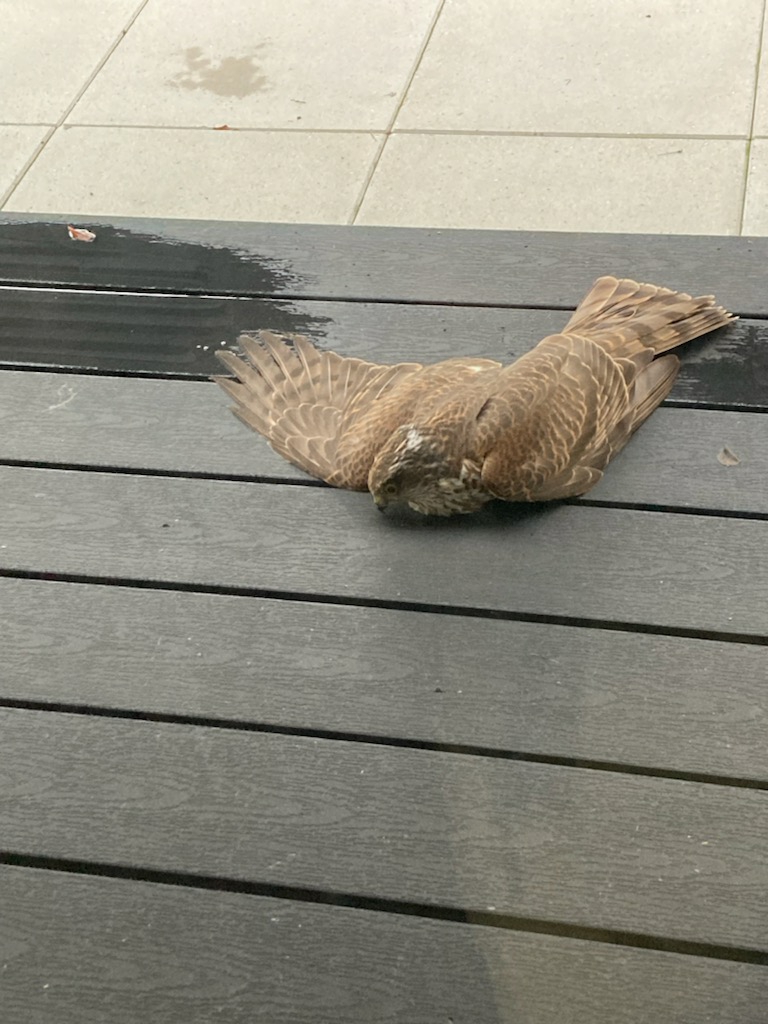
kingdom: Animalia
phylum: Chordata
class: Aves
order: Accipitriformes
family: Accipitridae
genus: Accipiter
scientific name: Accipiter nisus
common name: Spurvehøg
